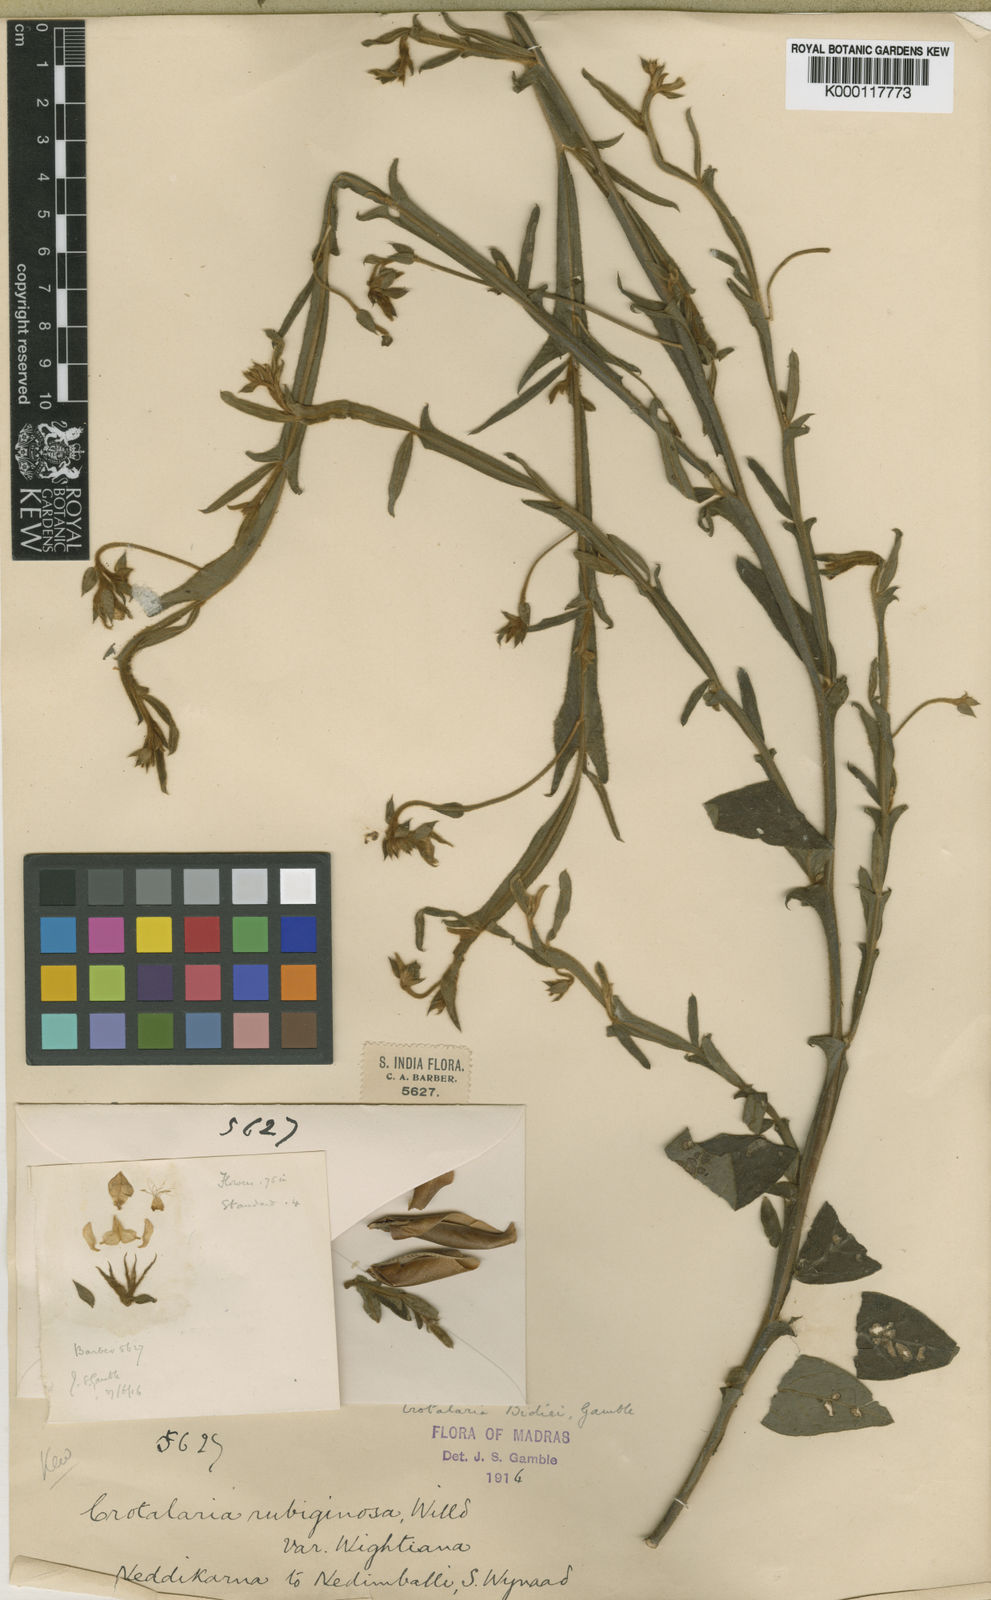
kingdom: Plantae
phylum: Tracheophyta
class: Magnoliopsida
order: Fabales
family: Fabaceae
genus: Crotalaria
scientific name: Crotalaria alata
